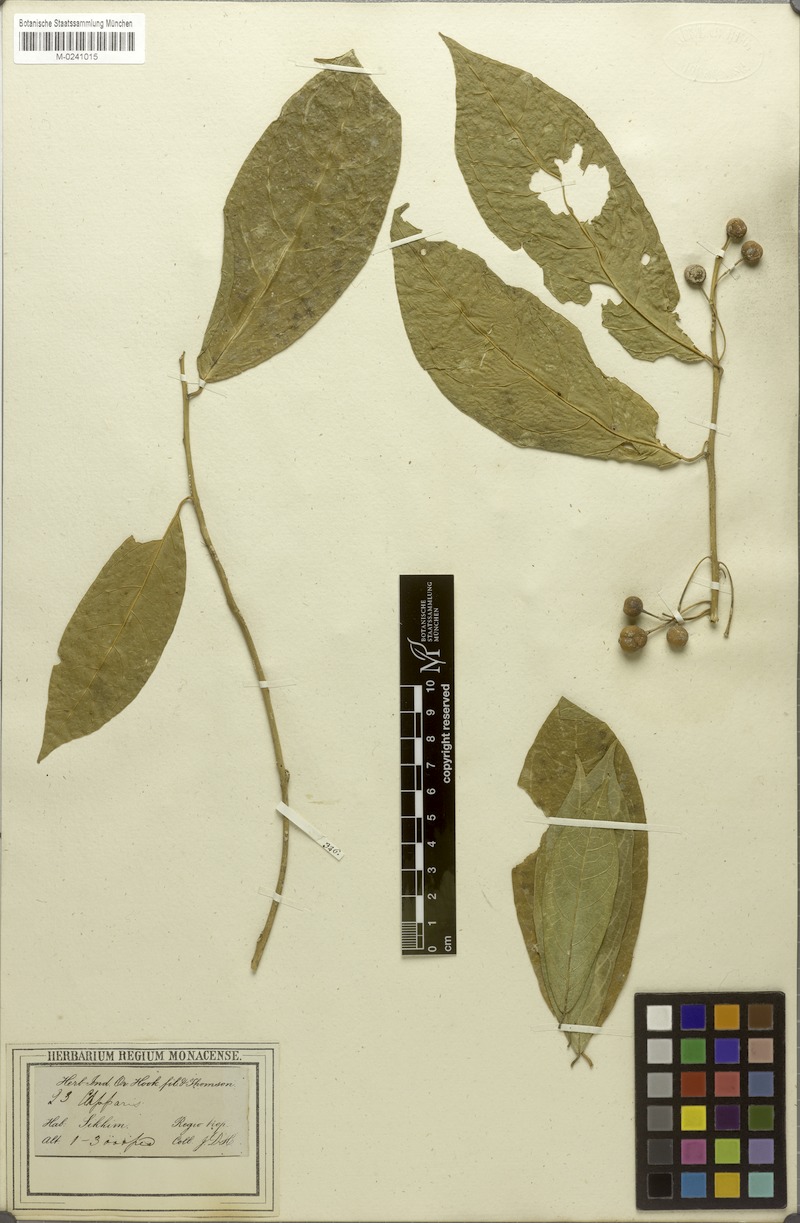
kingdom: Plantae
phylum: Tracheophyta
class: Magnoliopsida
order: Brassicales
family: Capparaceae
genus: Capparis
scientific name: Capparis multiflora
